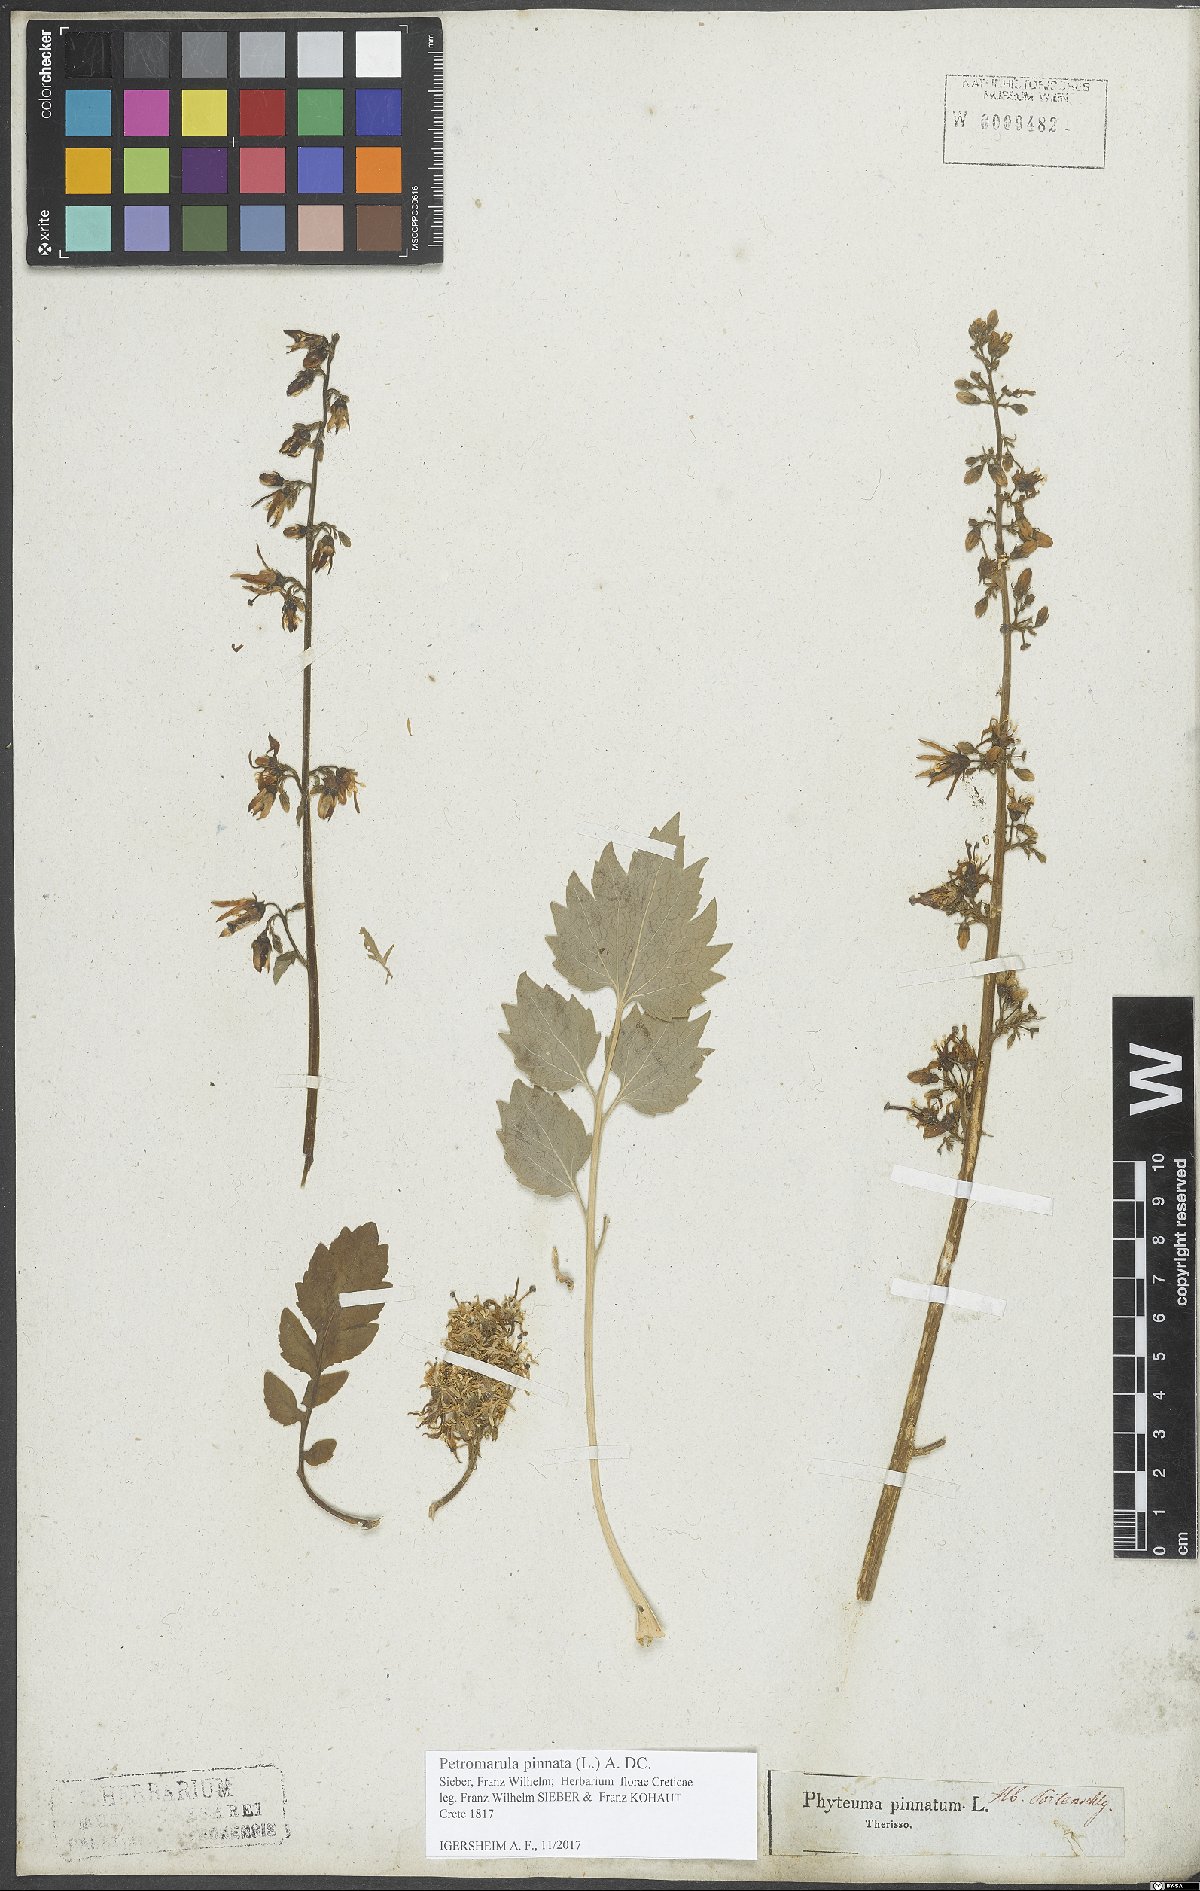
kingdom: Plantae
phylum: Tracheophyta
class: Magnoliopsida
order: Asterales
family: Campanulaceae
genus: Petromarula
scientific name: Petromarula pinnata
